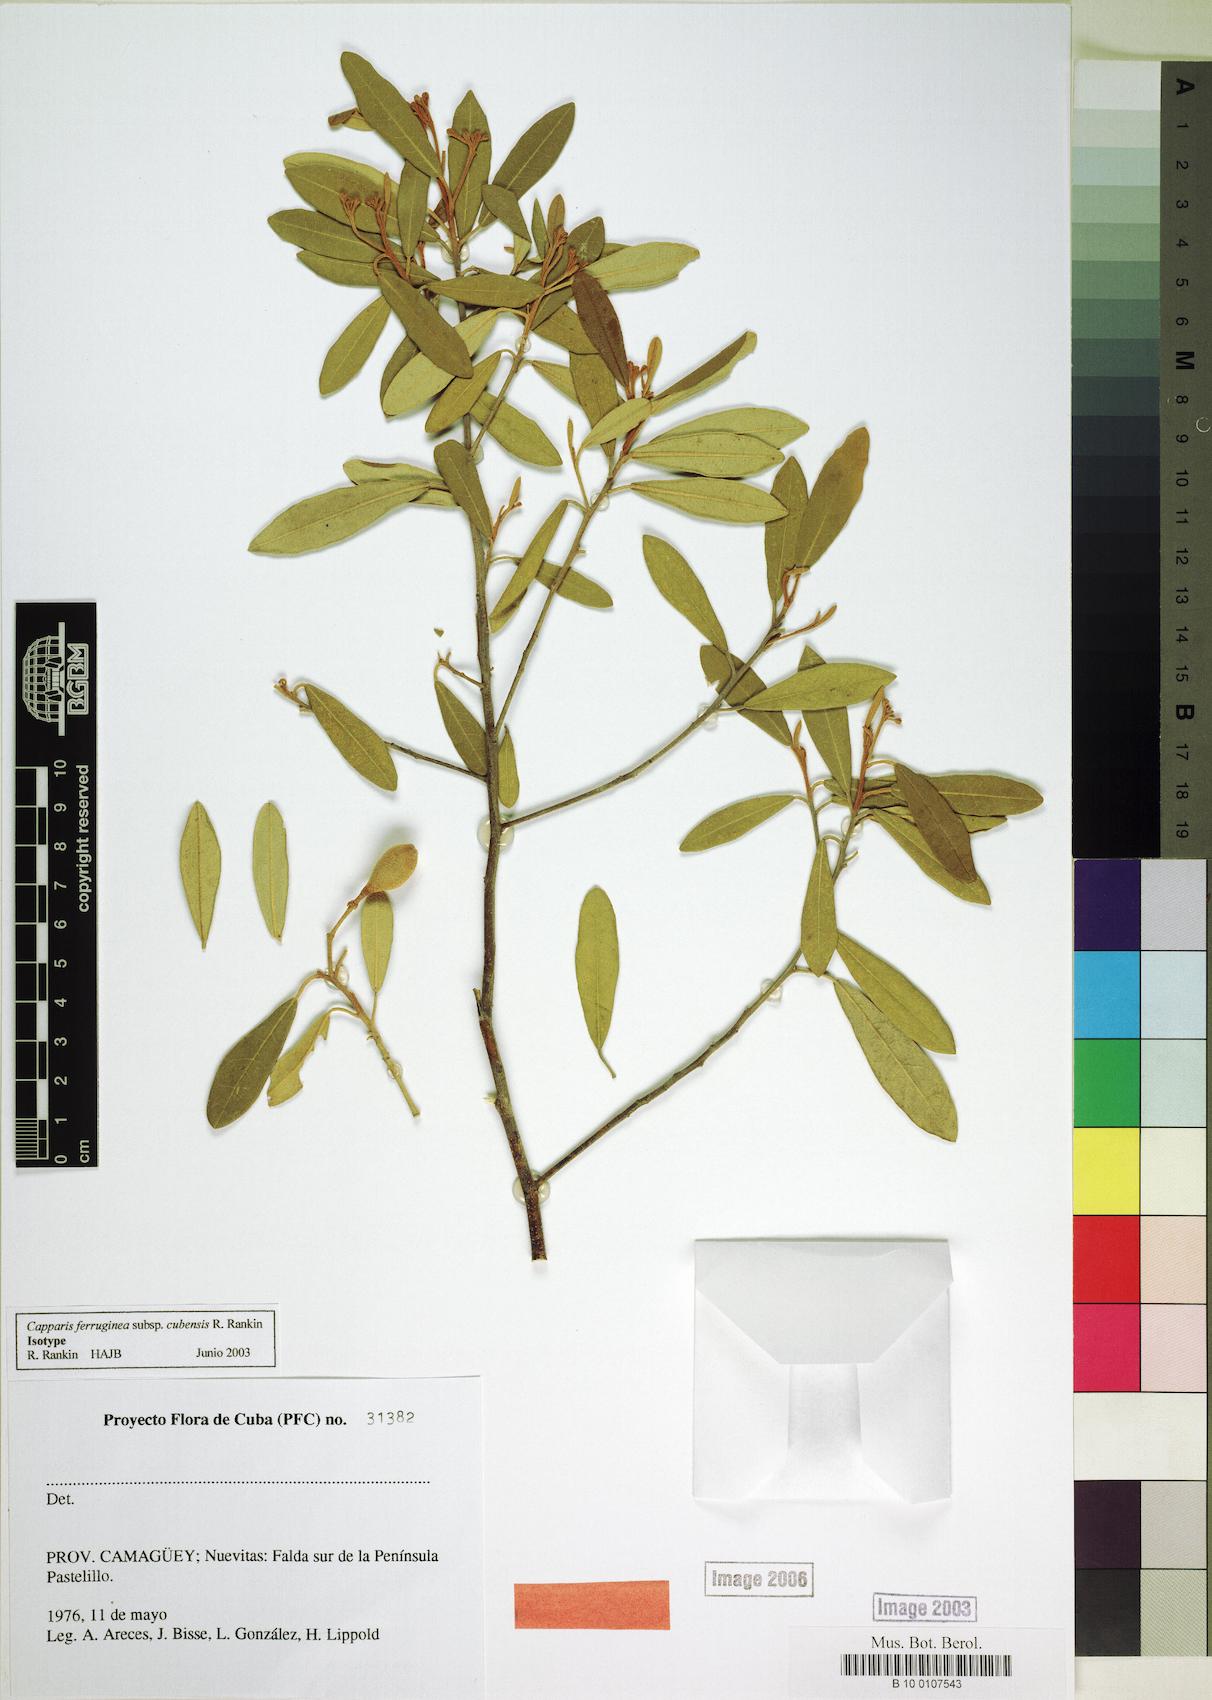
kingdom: Plantae
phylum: Tracheophyta
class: Magnoliopsida
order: Brassicales
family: Capparaceae
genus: Quadrella
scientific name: Quadrella ferruginea
